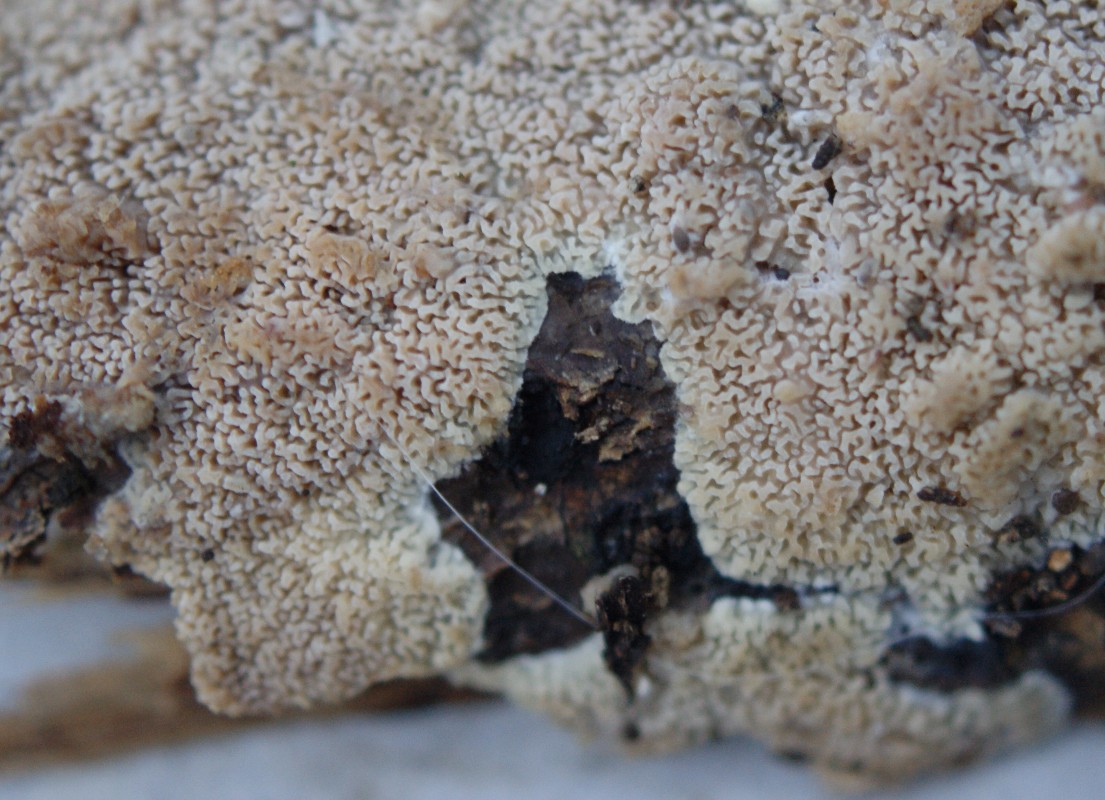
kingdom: Fungi
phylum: Basidiomycota
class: Agaricomycetes
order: Polyporales
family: Meruliaceae
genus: Phlebia
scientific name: Phlebia rufa
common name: ege-åresvamp
